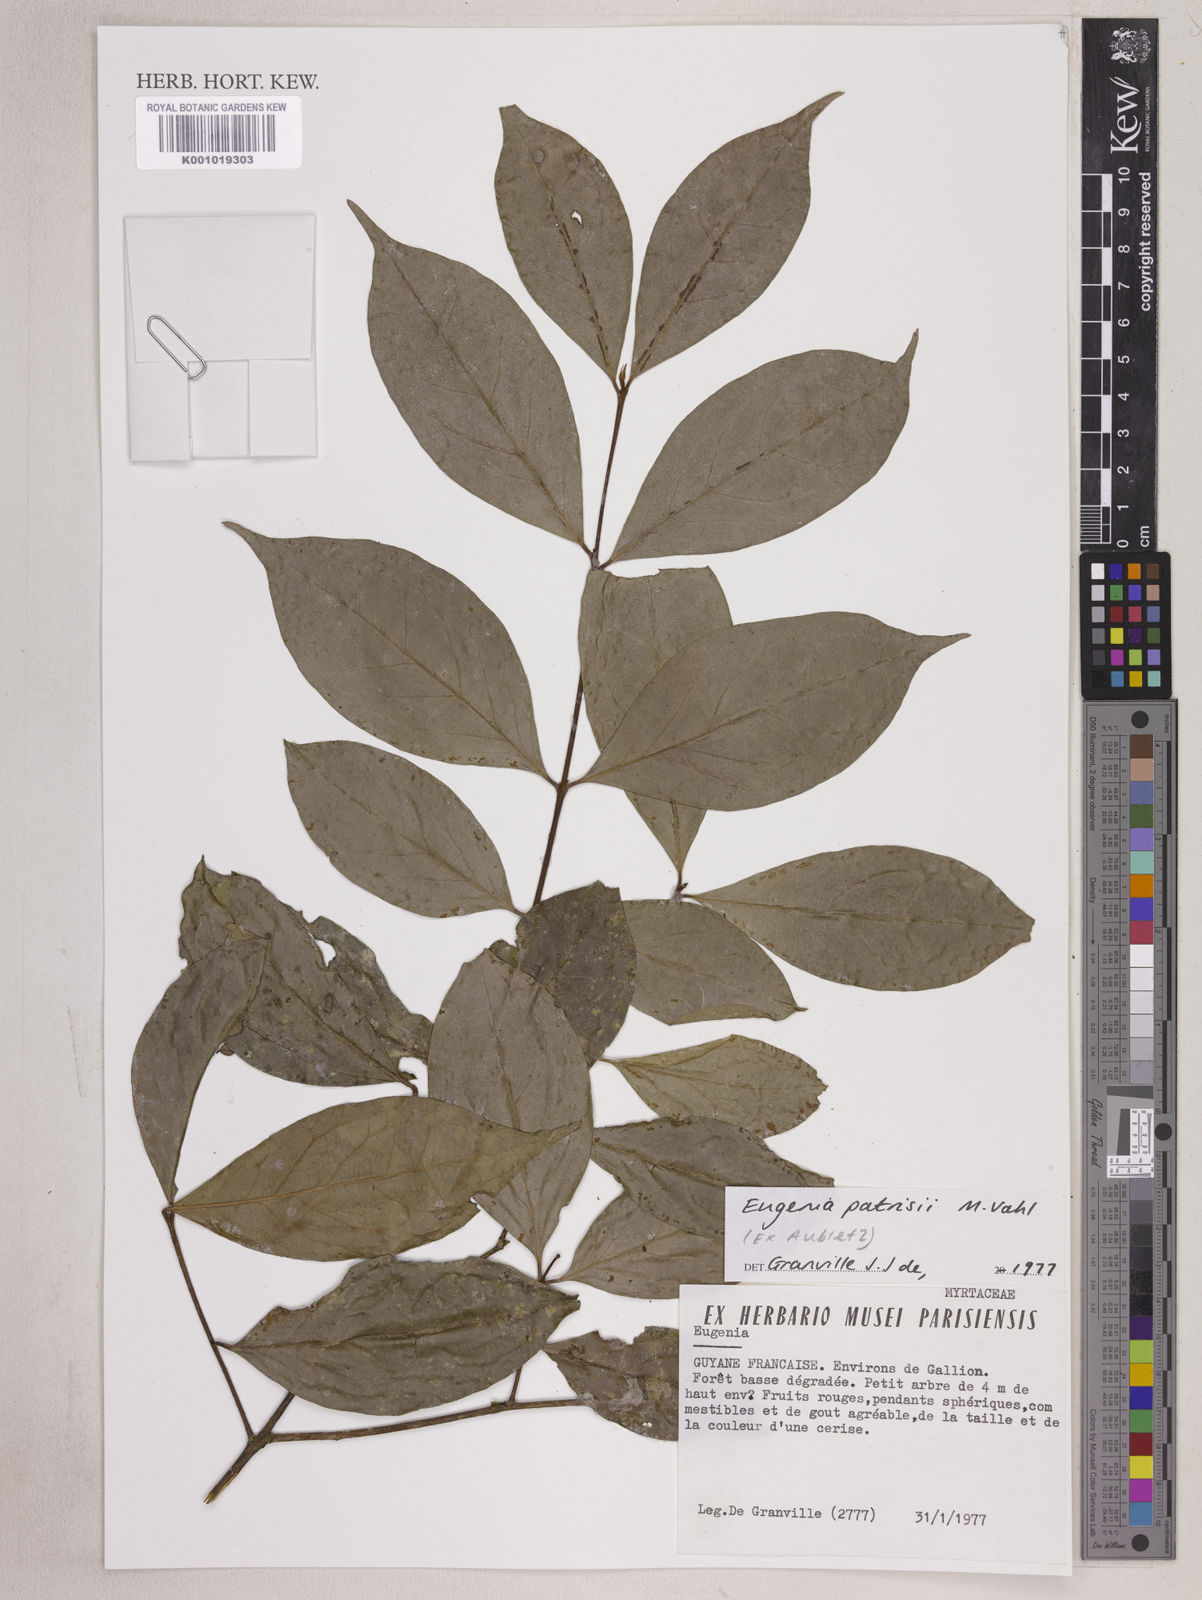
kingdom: Plantae
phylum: Tracheophyta
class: Magnoliopsida
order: Myrtales
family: Myrtaceae
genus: Eugenia
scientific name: Eugenia patrisii
